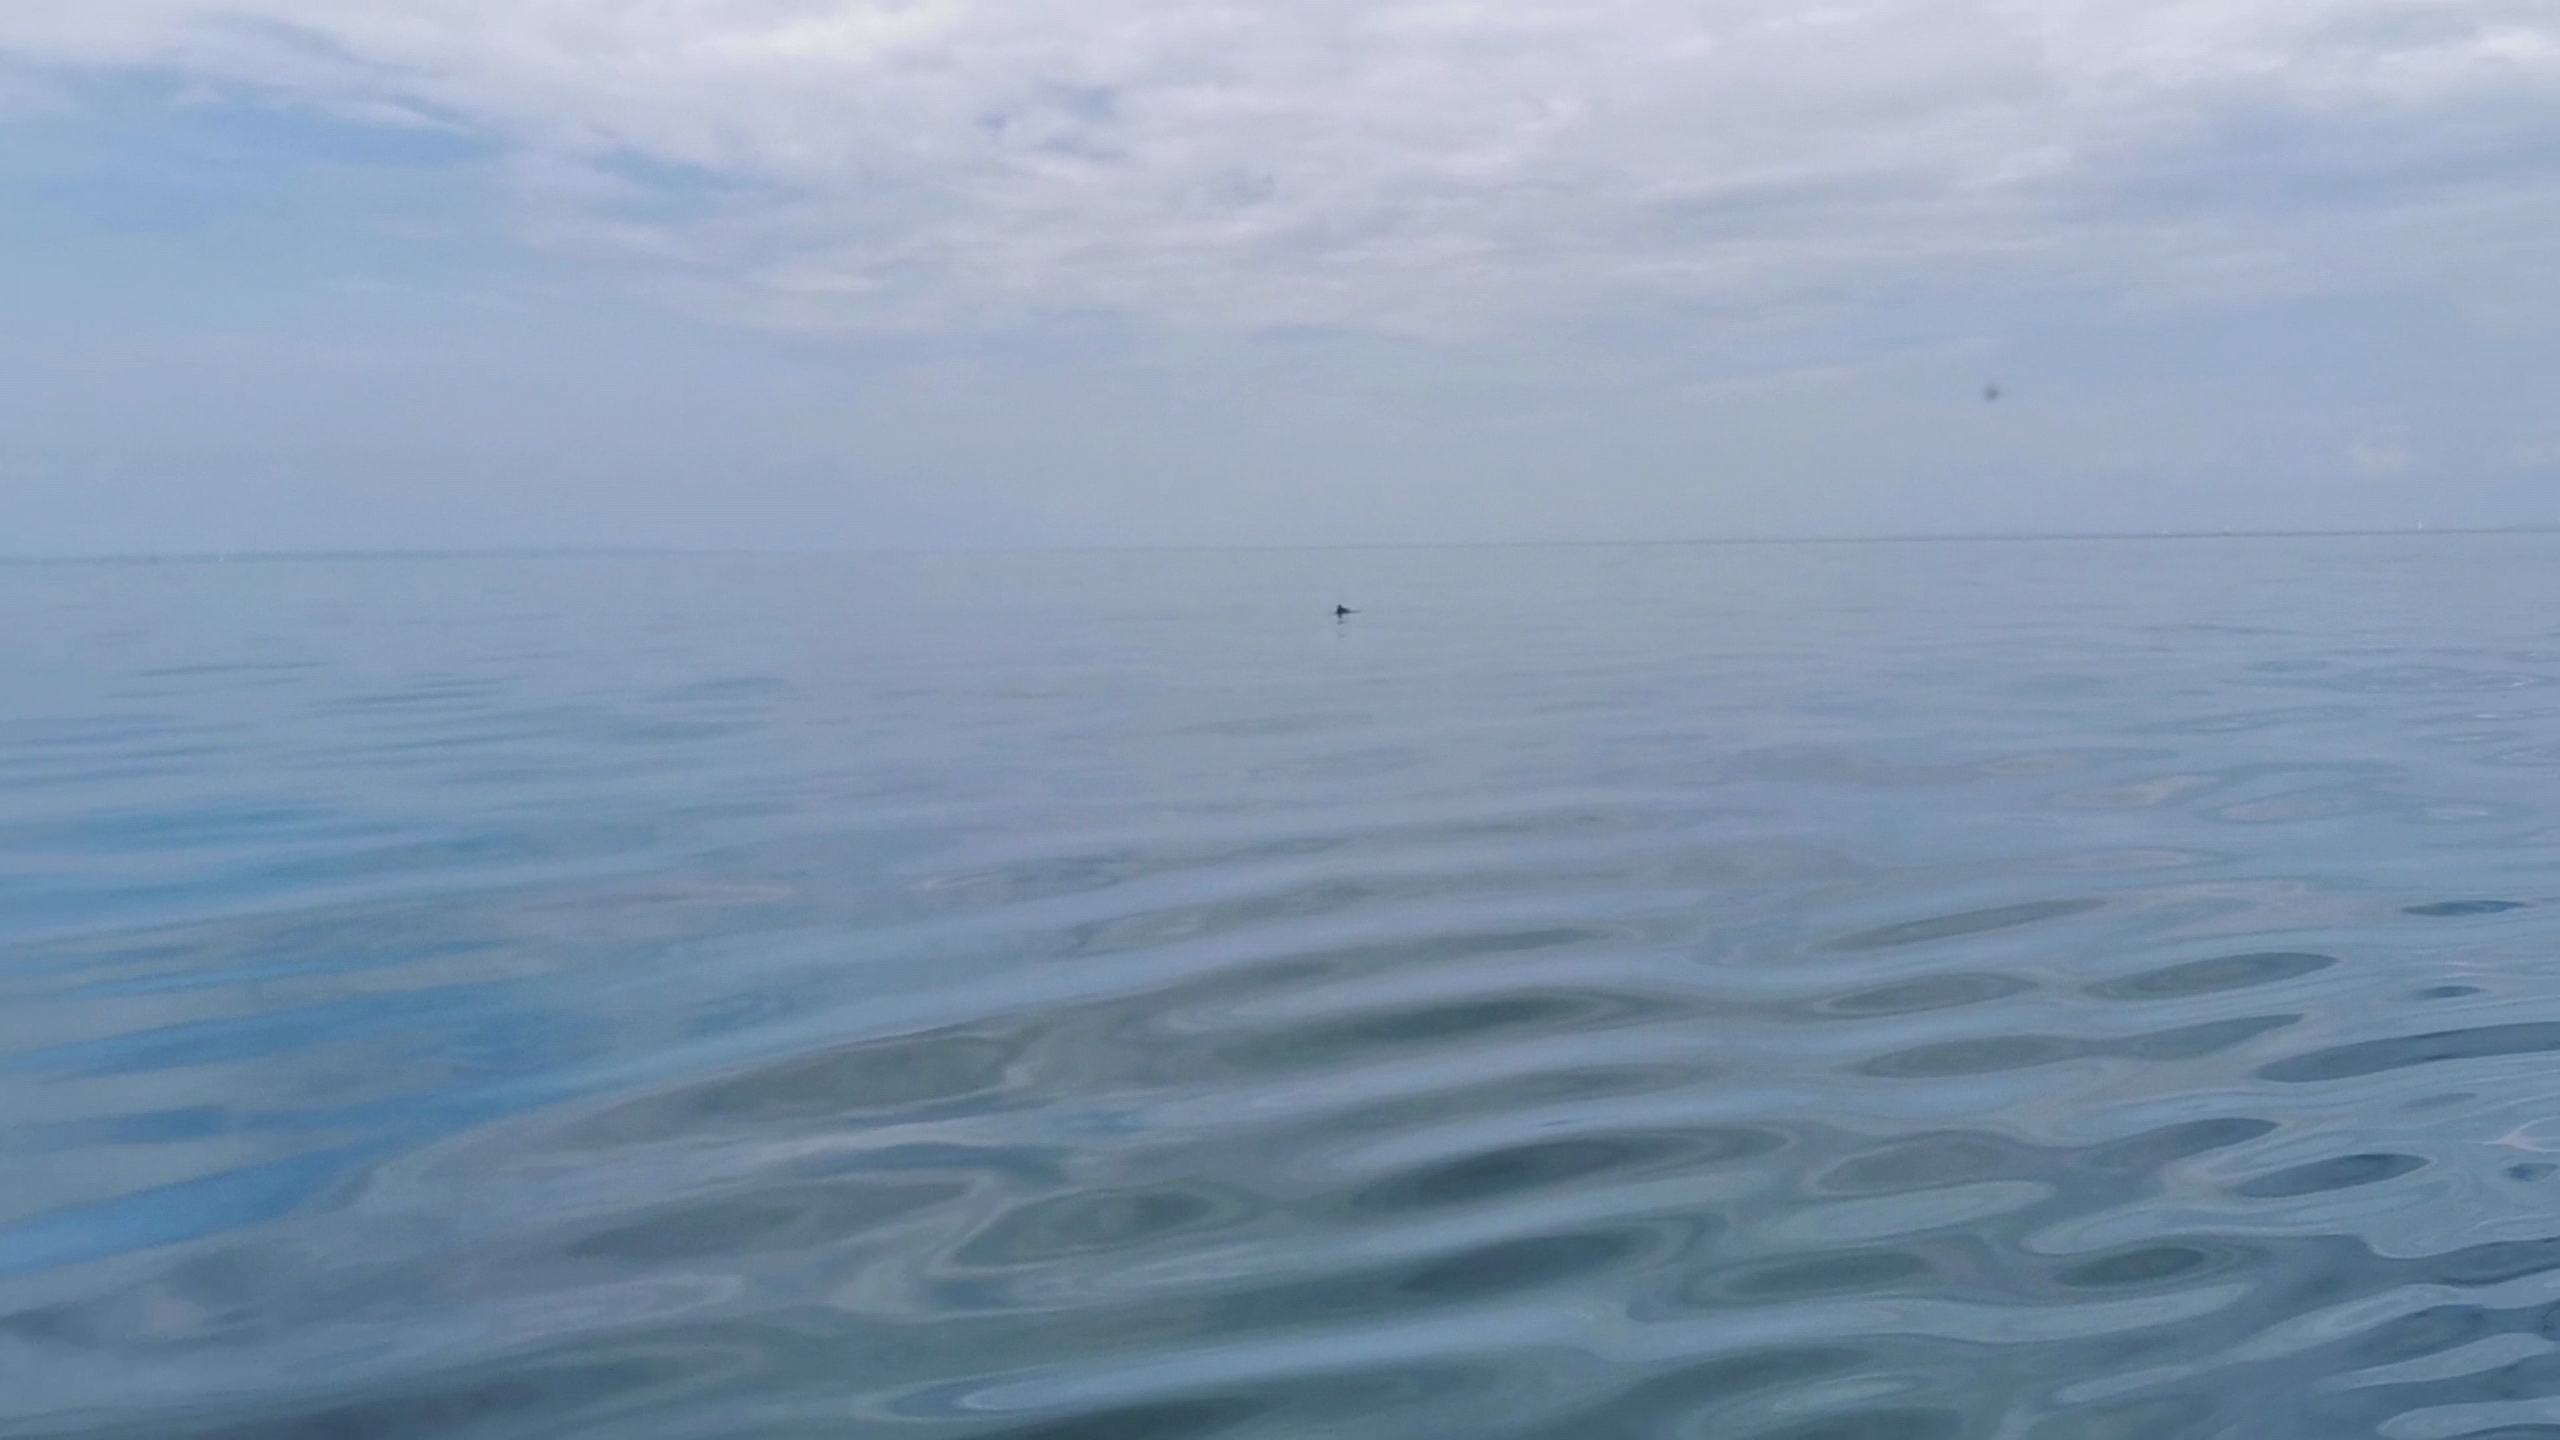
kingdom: Animalia
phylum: Chordata
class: Mammalia
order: Cetacea
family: Phocoenidae
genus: Phocoena
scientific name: Phocoena phocoena
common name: Marsvin
